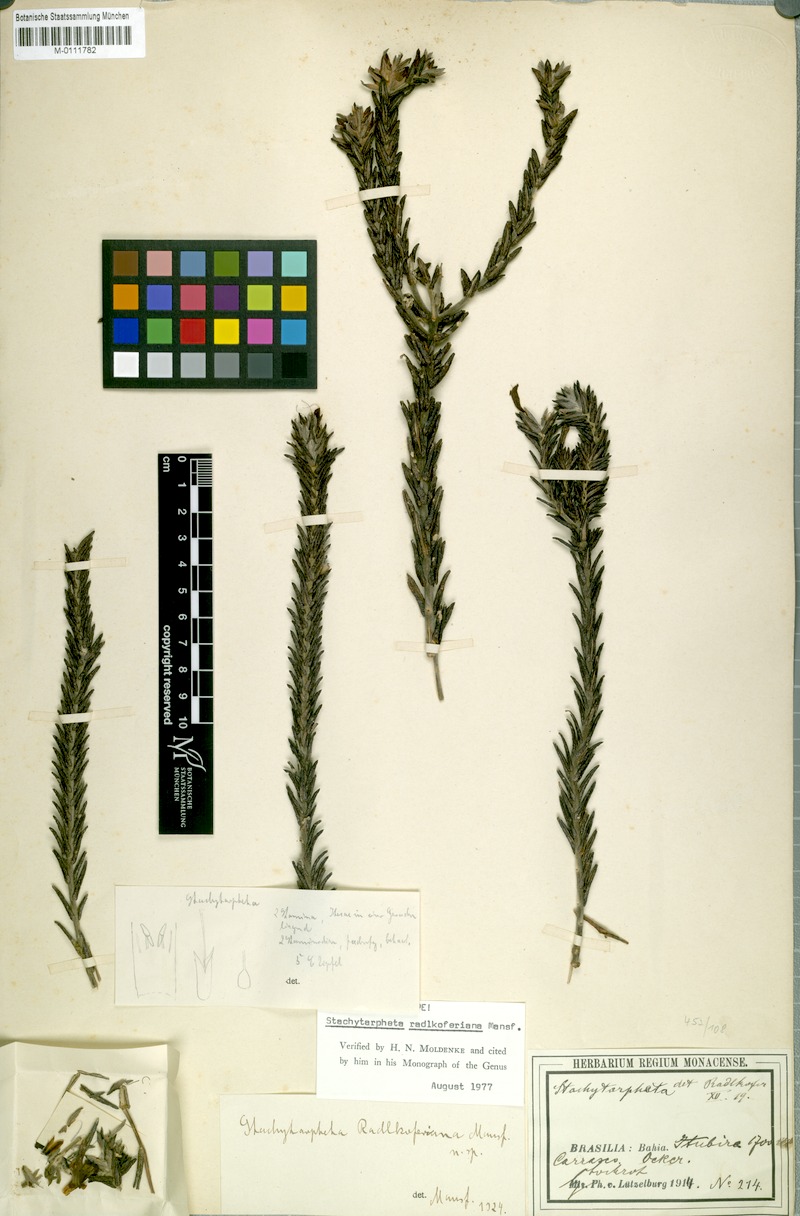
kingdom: Plantae
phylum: Tracheophyta
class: Magnoliopsida
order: Lamiales
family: Verbenaceae
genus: Stachytarpheta
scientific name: Stachytarpheta radlkoferiana
